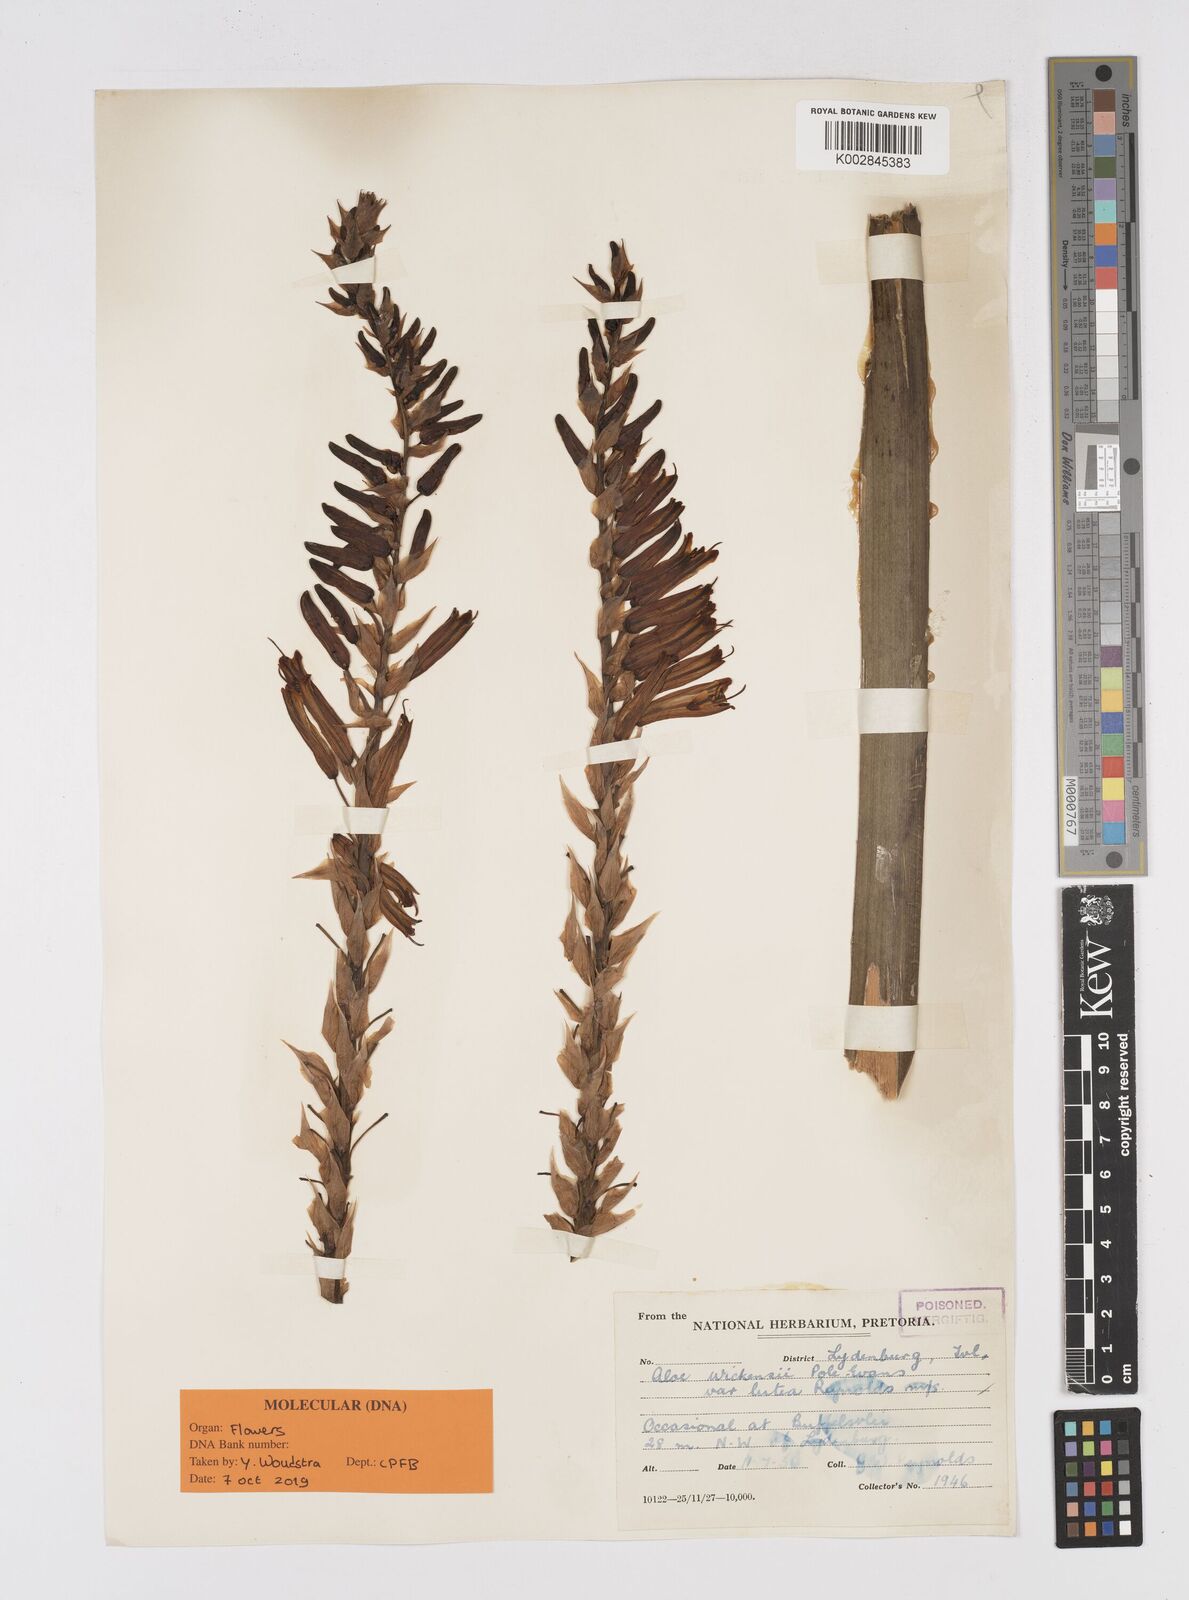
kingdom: Plantae
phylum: Tracheophyta
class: Liliopsida
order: Asparagales
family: Asphodelaceae
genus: Aloe
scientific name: Aloe cryptopoda
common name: Dr. kirk's aloe
